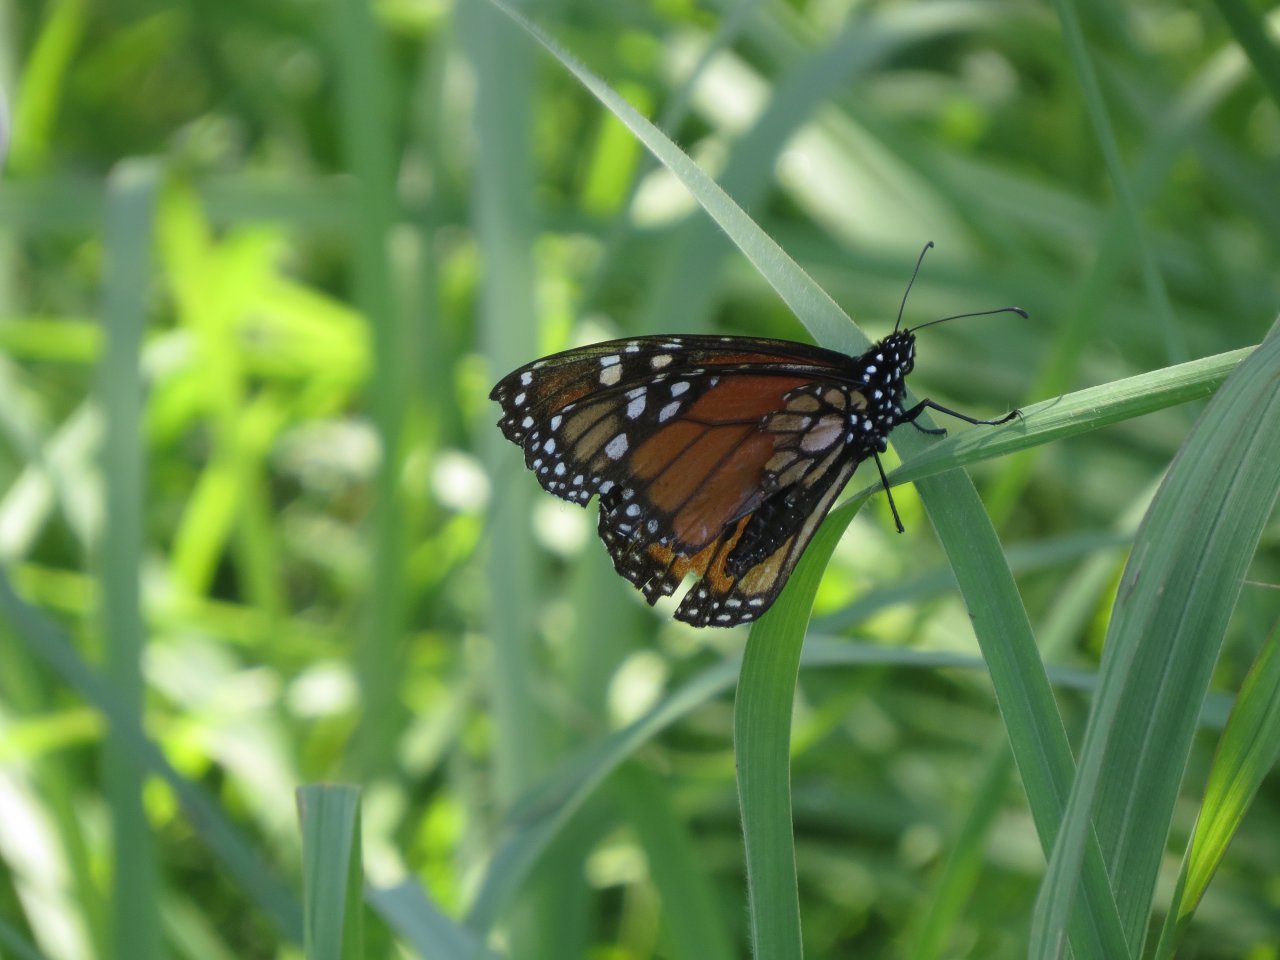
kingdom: Animalia
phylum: Arthropoda
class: Insecta
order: Lepidoptera
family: Nymphalidae
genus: Danaus
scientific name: Danaus plexippus
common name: Monarch
